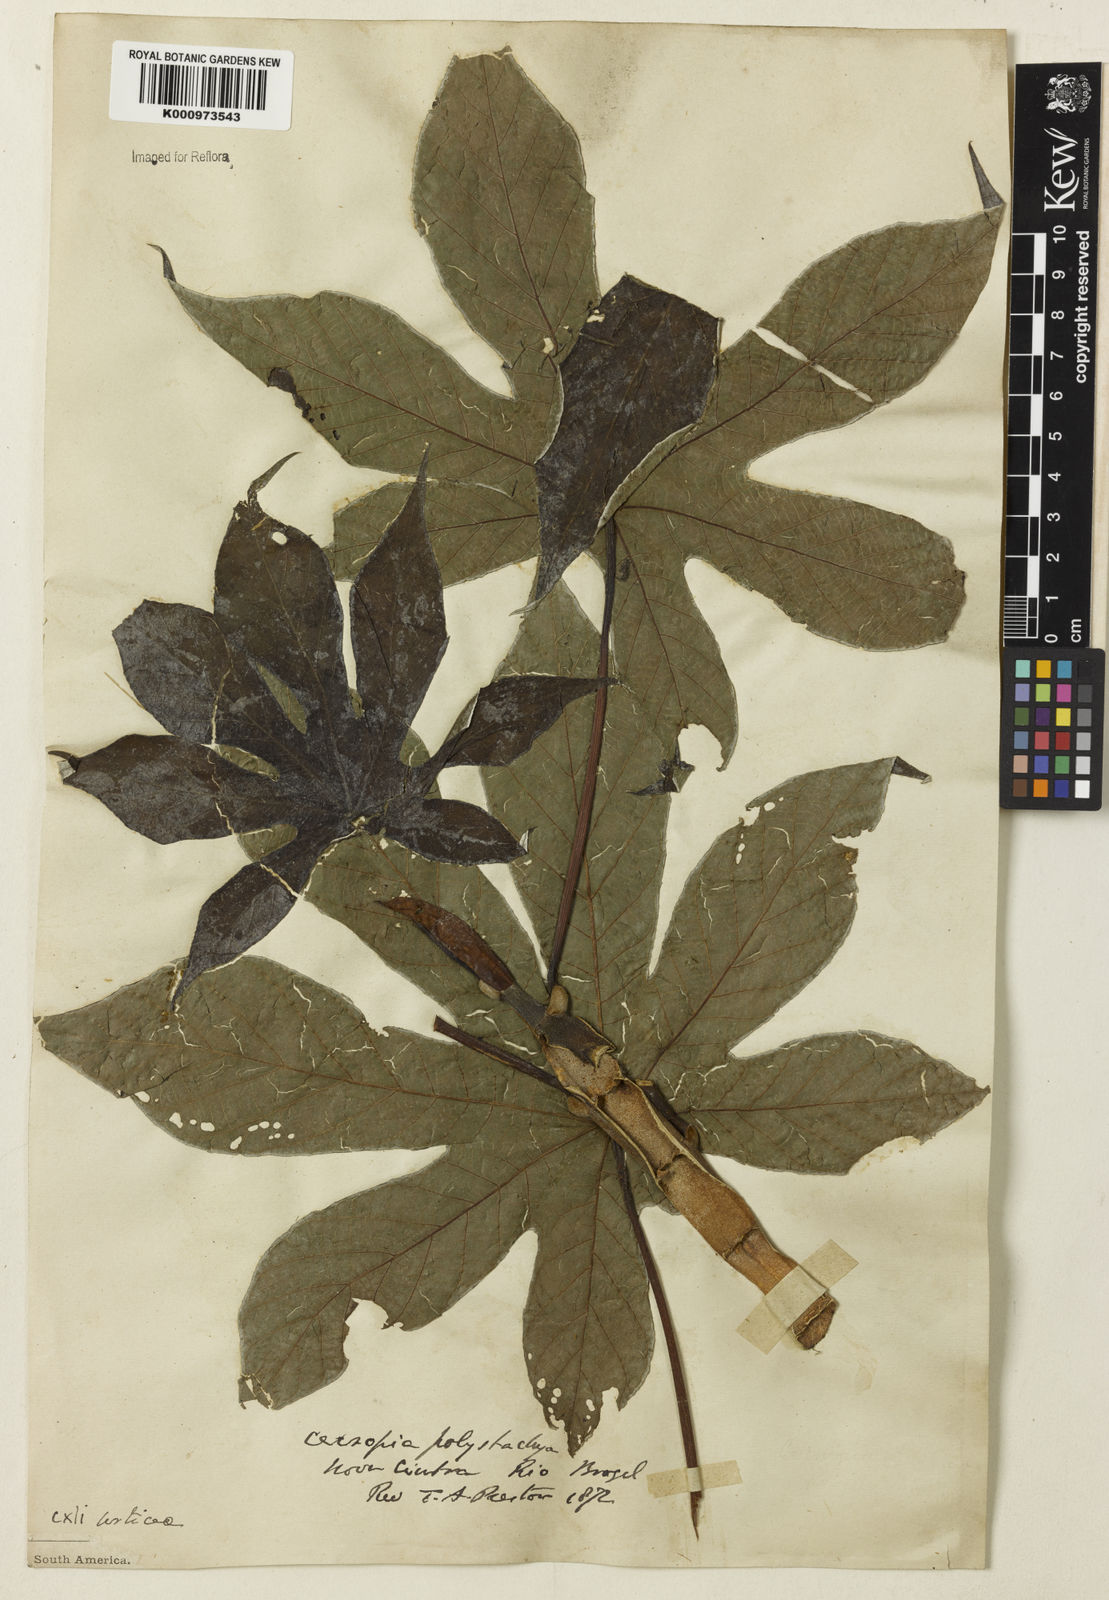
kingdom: Plantae
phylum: Tracheophyta
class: Magnoliopsida
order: Rosales
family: Urticaceae
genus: Cecropia
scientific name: Cecropia
